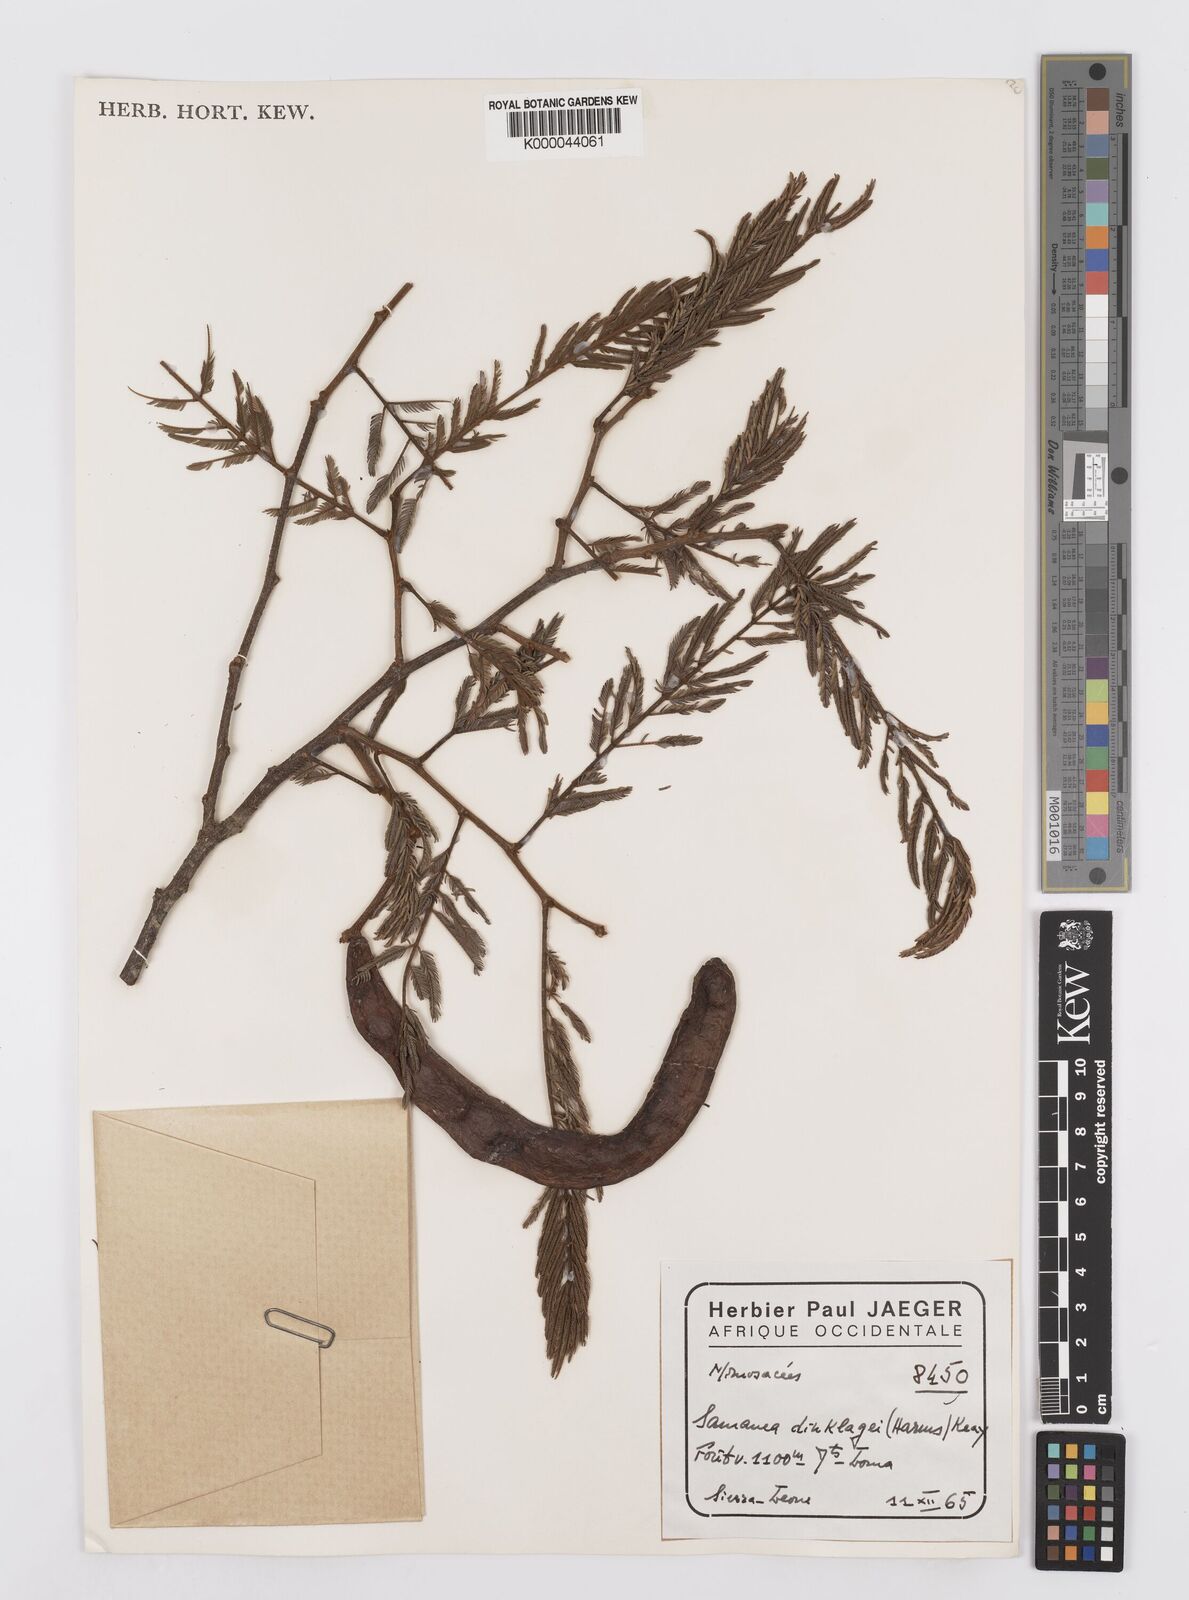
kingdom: Plantae
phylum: Tracheophyta
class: Magnoliopsida
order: Fabales
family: Fabaceae
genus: Albizia
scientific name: Albizia dinklagei
